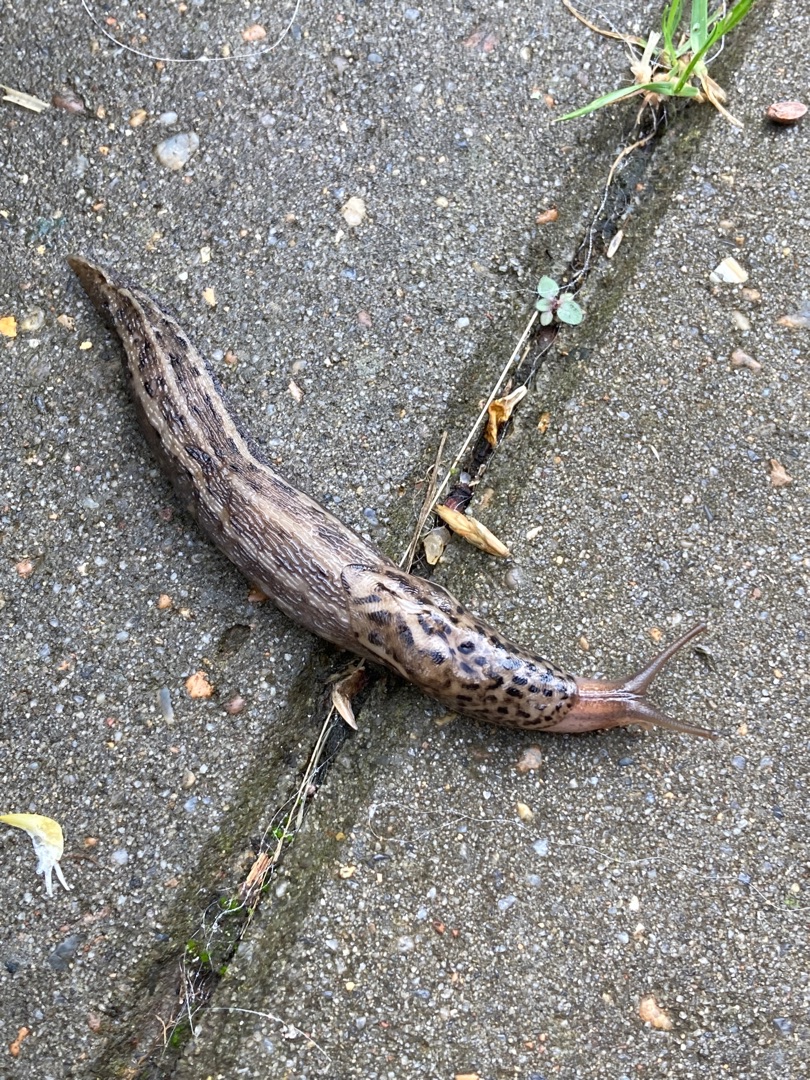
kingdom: Animalia
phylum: Mollusca
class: Gastropoda
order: Stylommatophora
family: Limacidae
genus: Limax
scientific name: Limax maximus
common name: Pantersnegl
